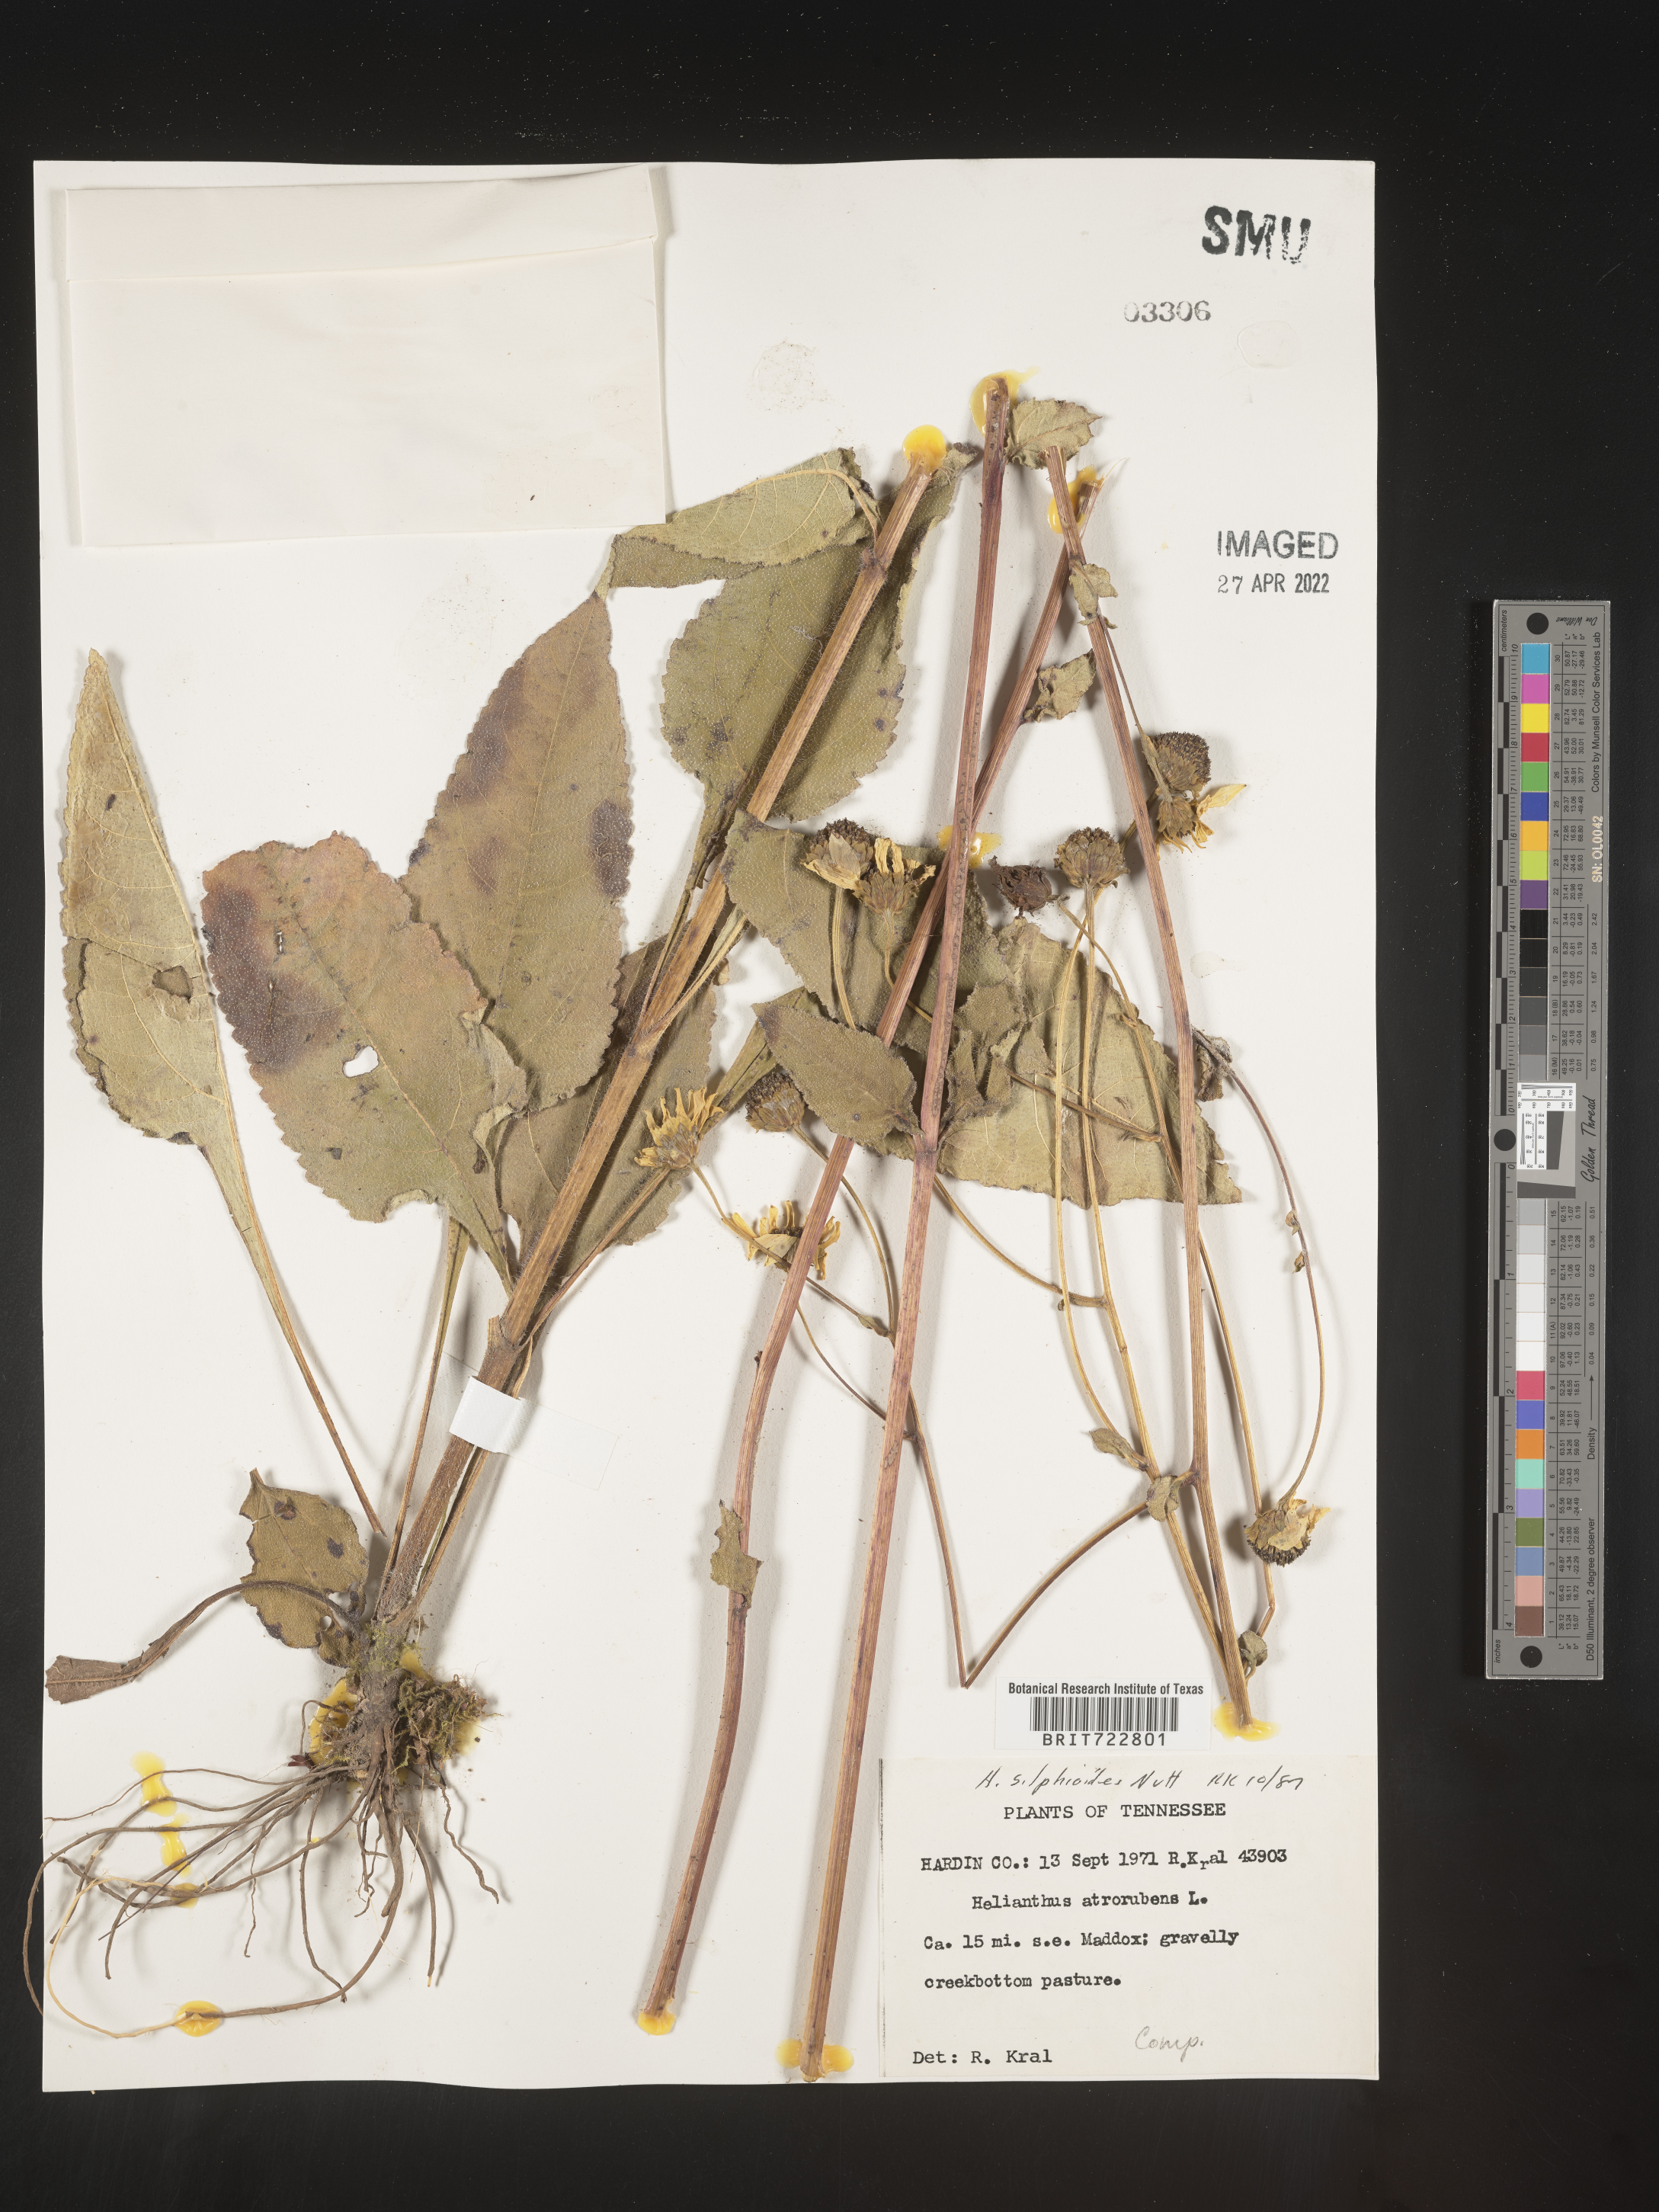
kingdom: Plantae
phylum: Tracheophyta
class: Magnoliopsida
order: Asterales
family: Asteraceae
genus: Helianthus
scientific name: Helianthus silphioides
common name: Odorous sunflower
